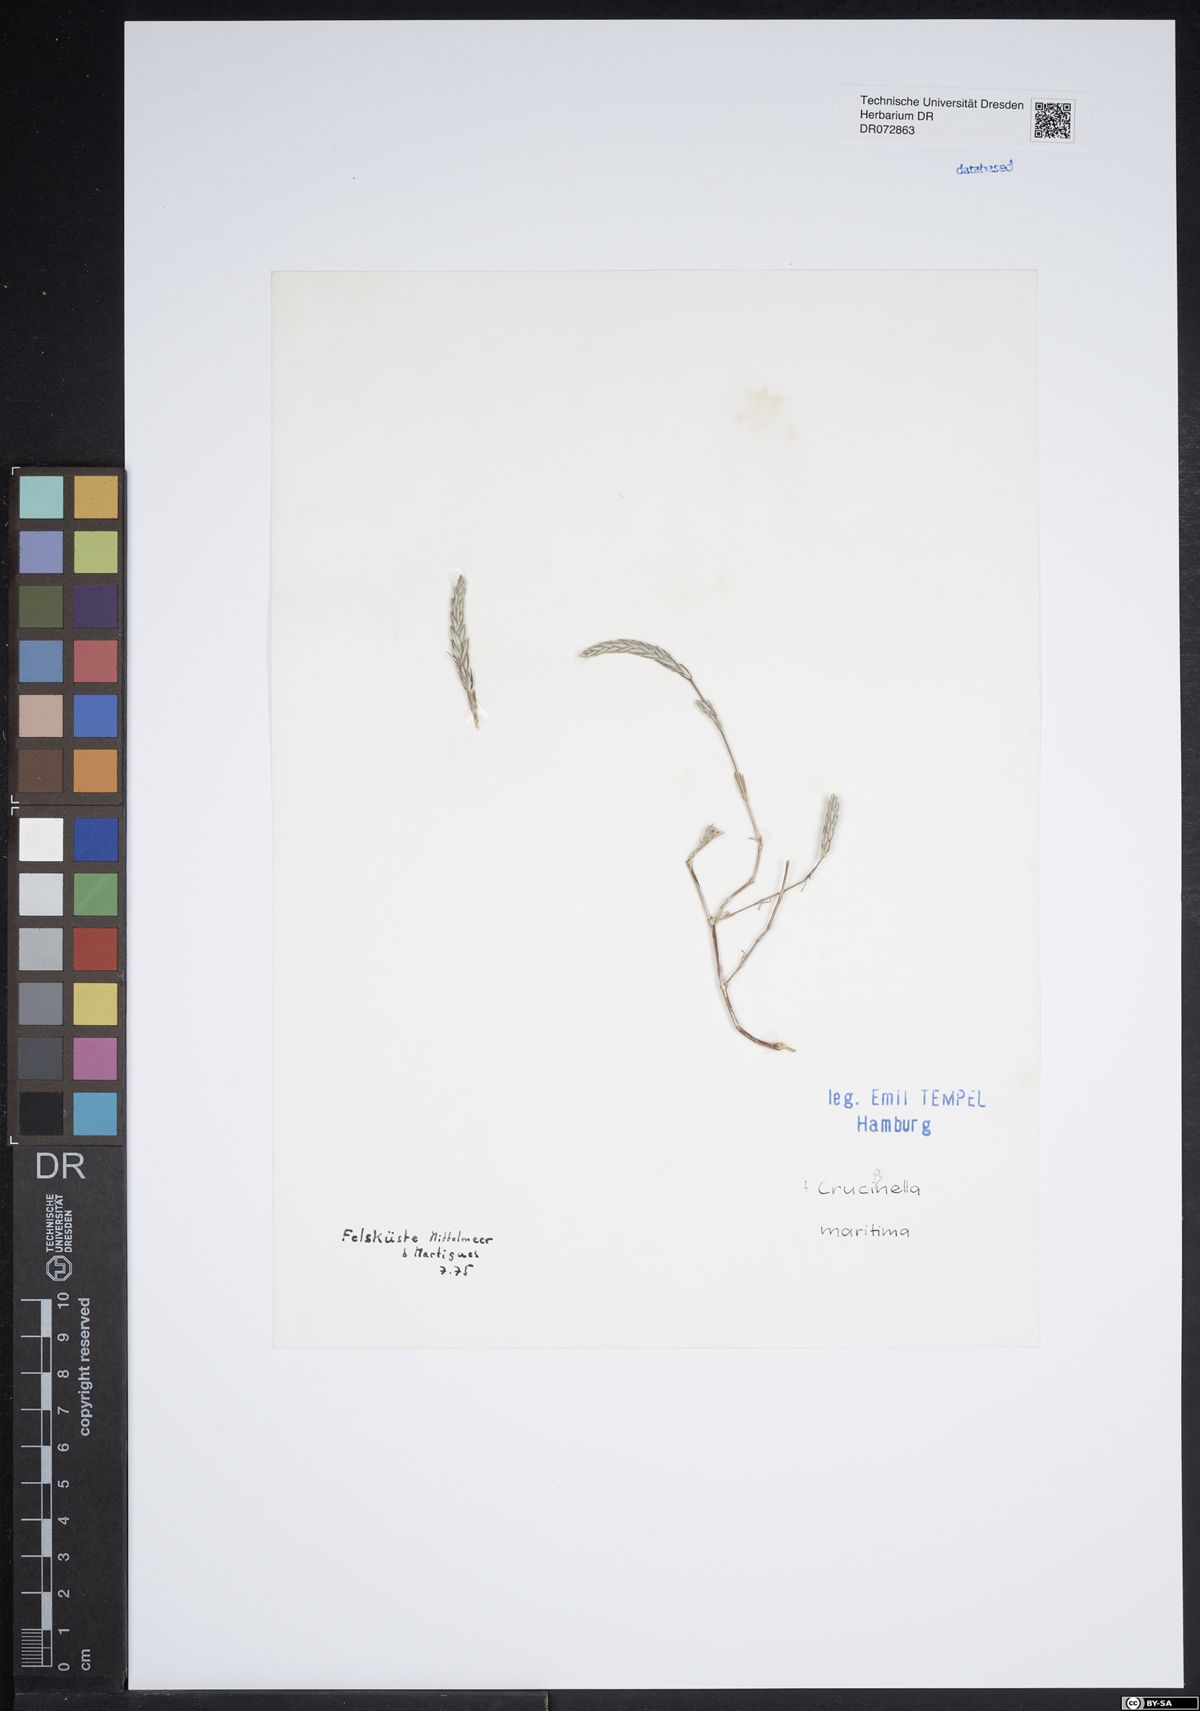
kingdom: Plantae
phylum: Tracheophyta
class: Magnoliopsida
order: Gentianales
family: Rubiaceae
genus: Crucianella
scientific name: Crucianella maritima
